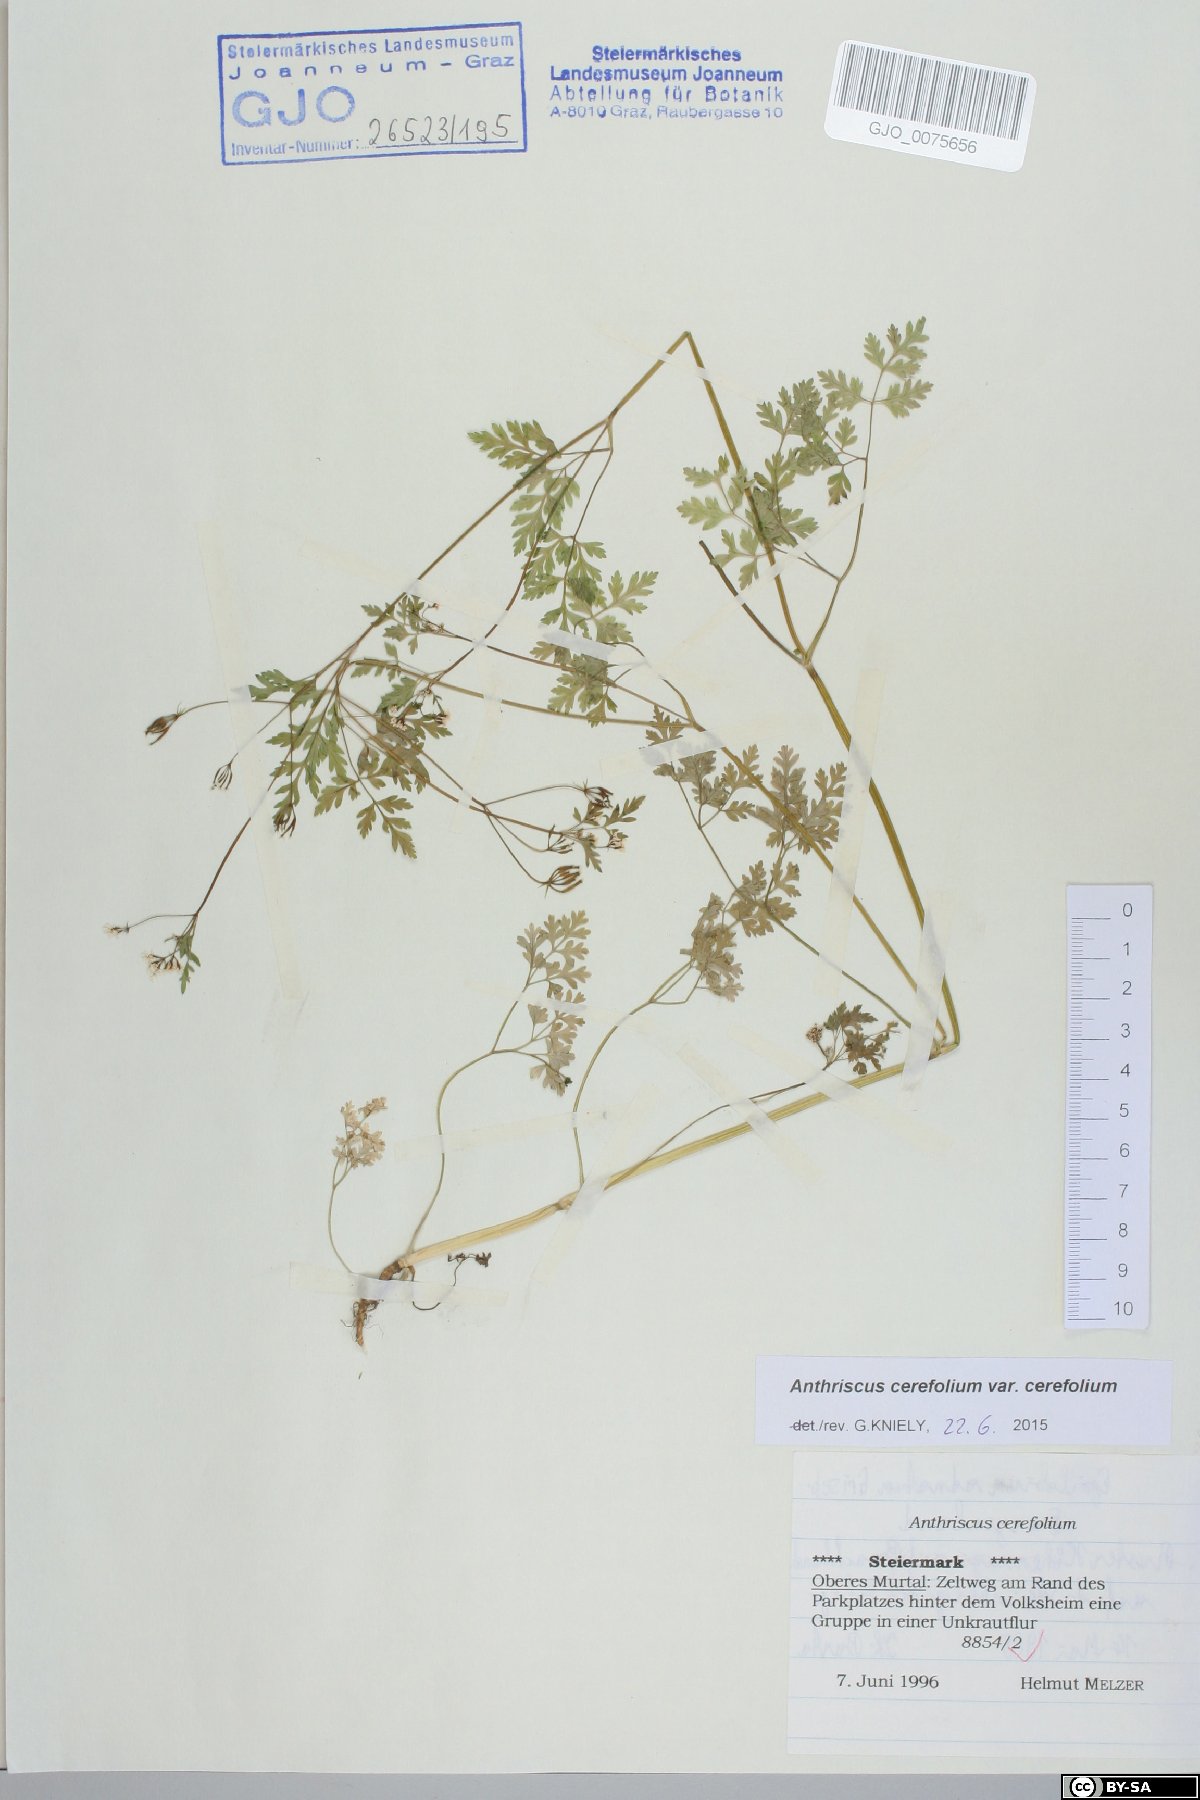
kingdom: Plantae
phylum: Tracheophyta
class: Magnoliopsida
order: Apiales
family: Apiaceae
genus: Anthriscus
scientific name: Anthriscus cerefolium
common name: Garden chervil
